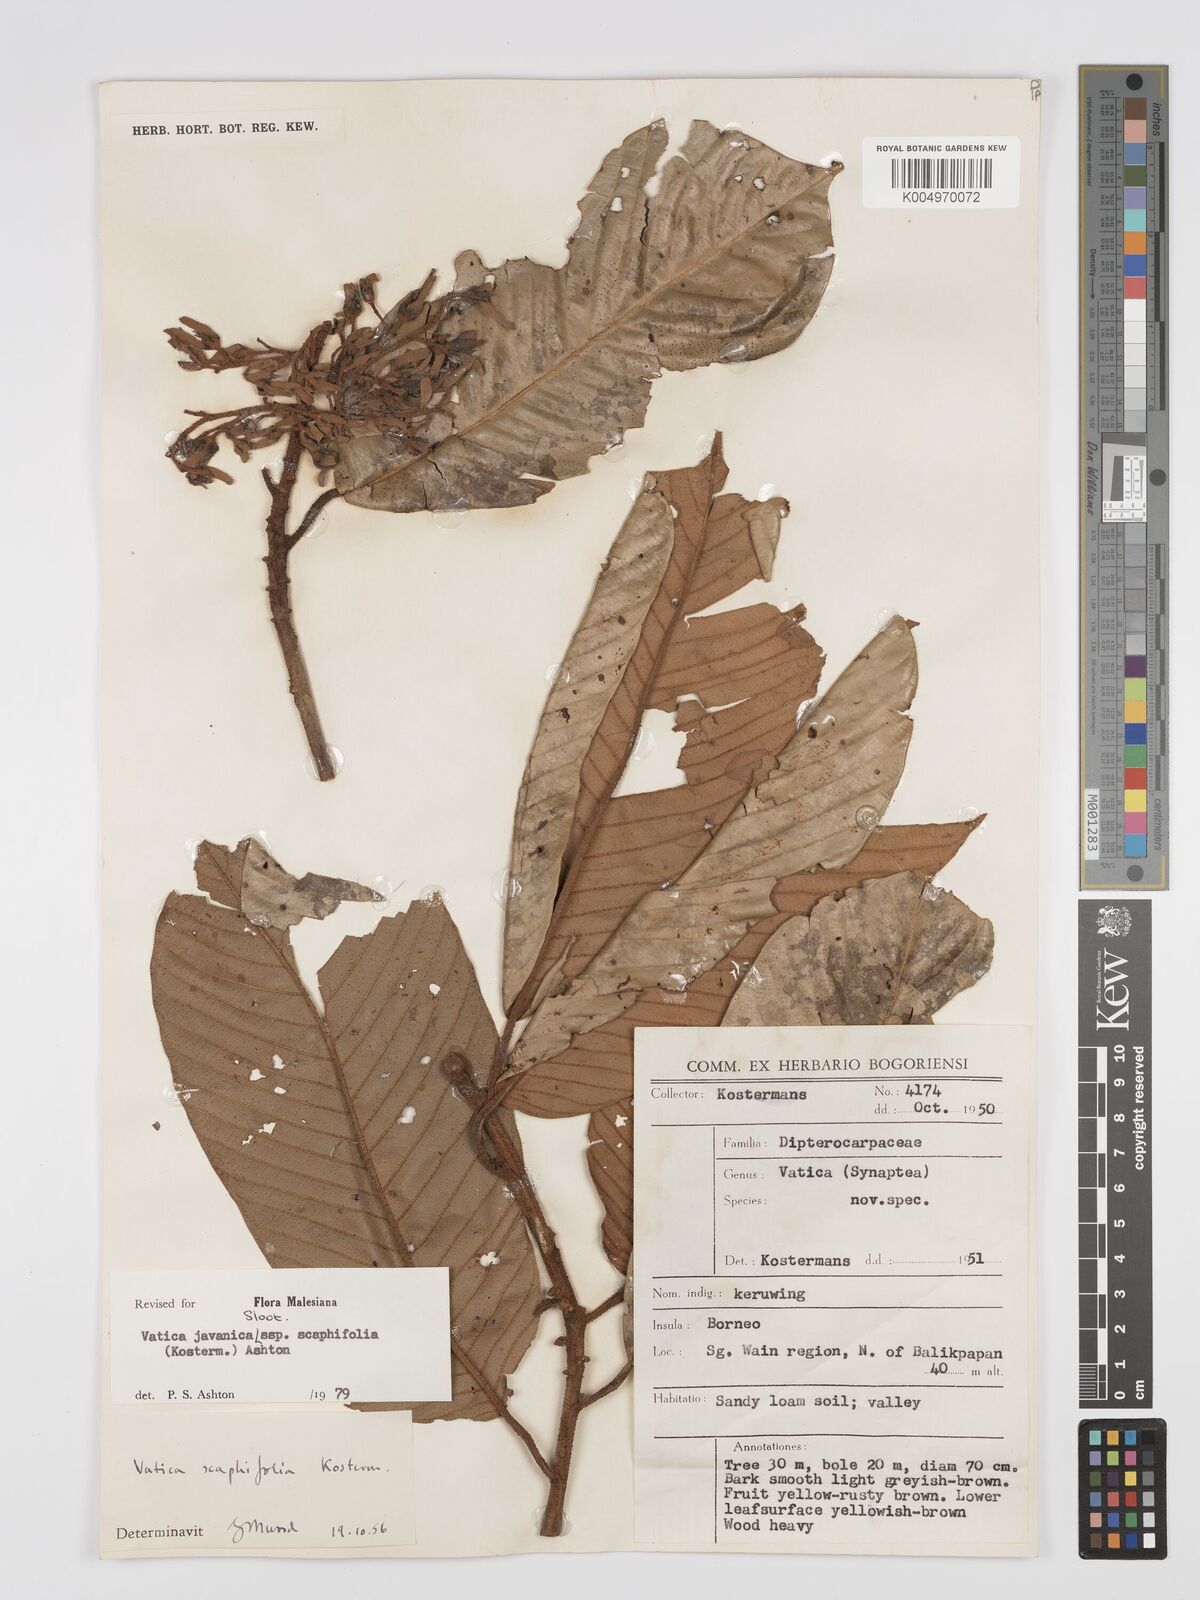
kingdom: Plantae
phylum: Tracheophyta
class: Magnoliopsida
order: Malvales
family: Dipterocarpaceae
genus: Vatica
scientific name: Vatica javanica
